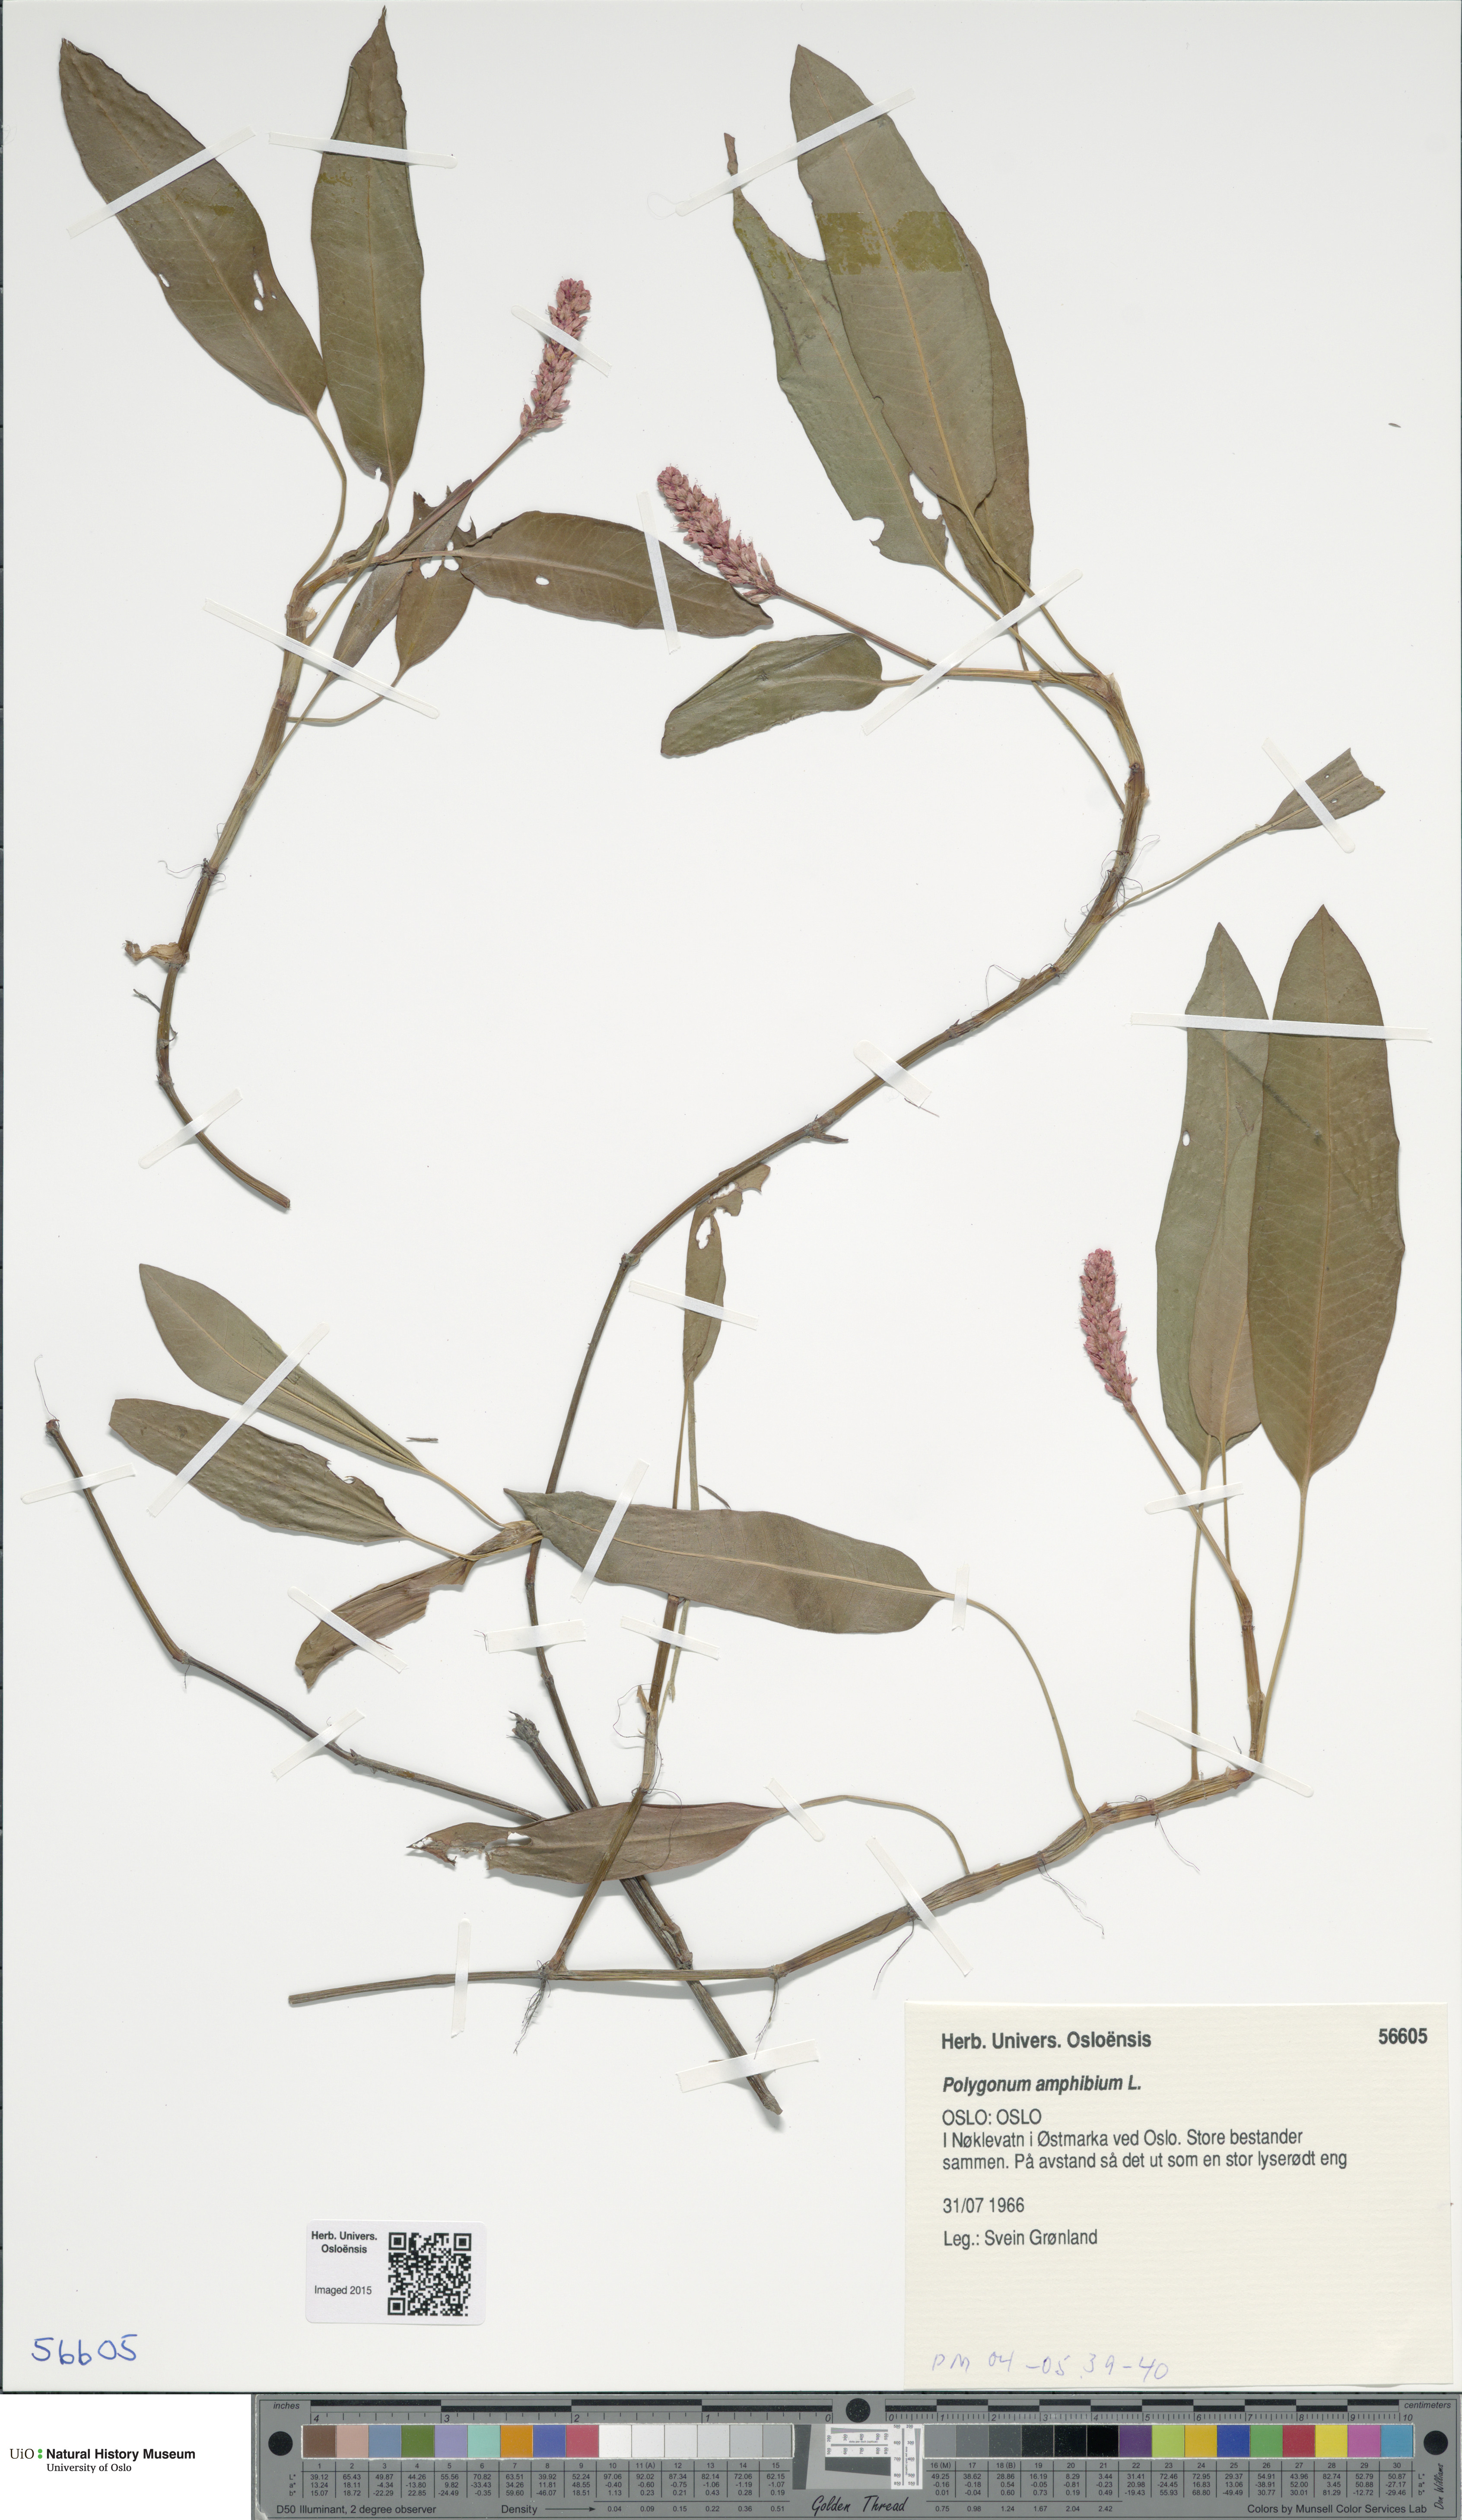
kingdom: Plantae
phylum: Tracheophyta
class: Magnoliopsida
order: Caryophyllales
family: Polygonaceae
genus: Persicaria
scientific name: Persicaria amphibia
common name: Amphibious bistort
